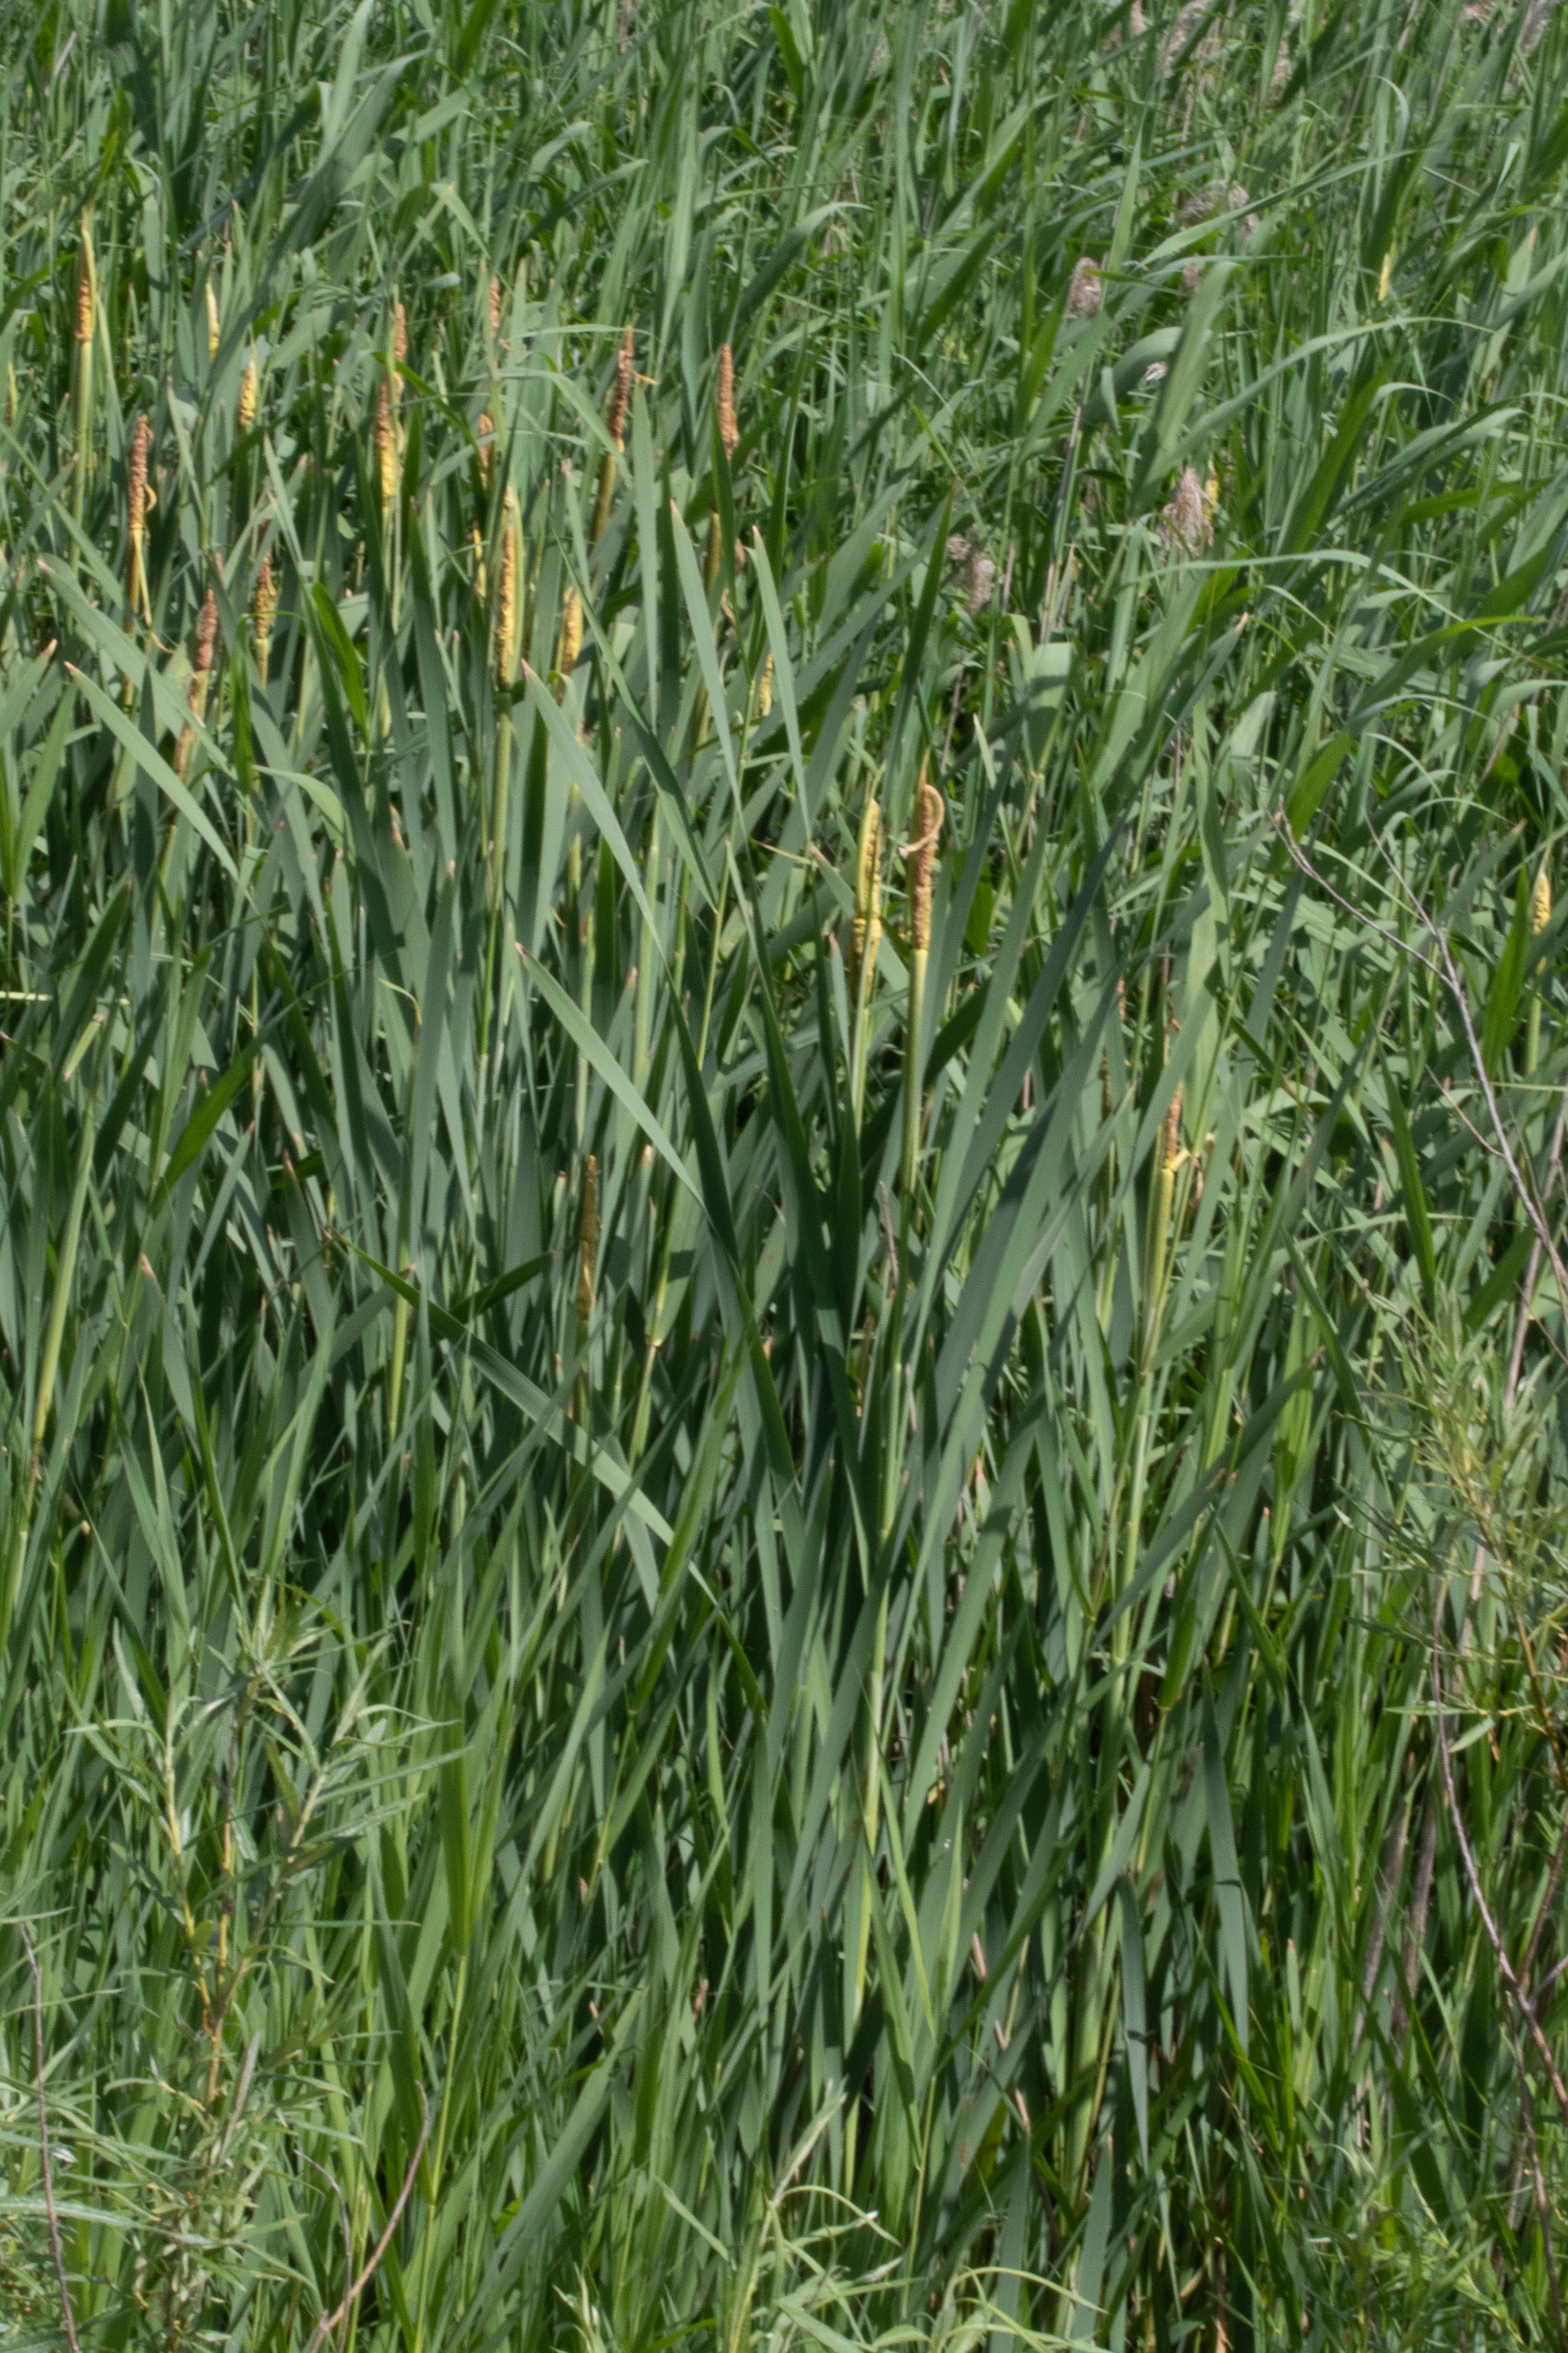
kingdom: Plantae
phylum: Tracheophyta
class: Liliopsida
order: Poales
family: Typhaceae
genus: Typha
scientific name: Typha
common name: Smalbladet dunhammer × bredbladet dunhammer
